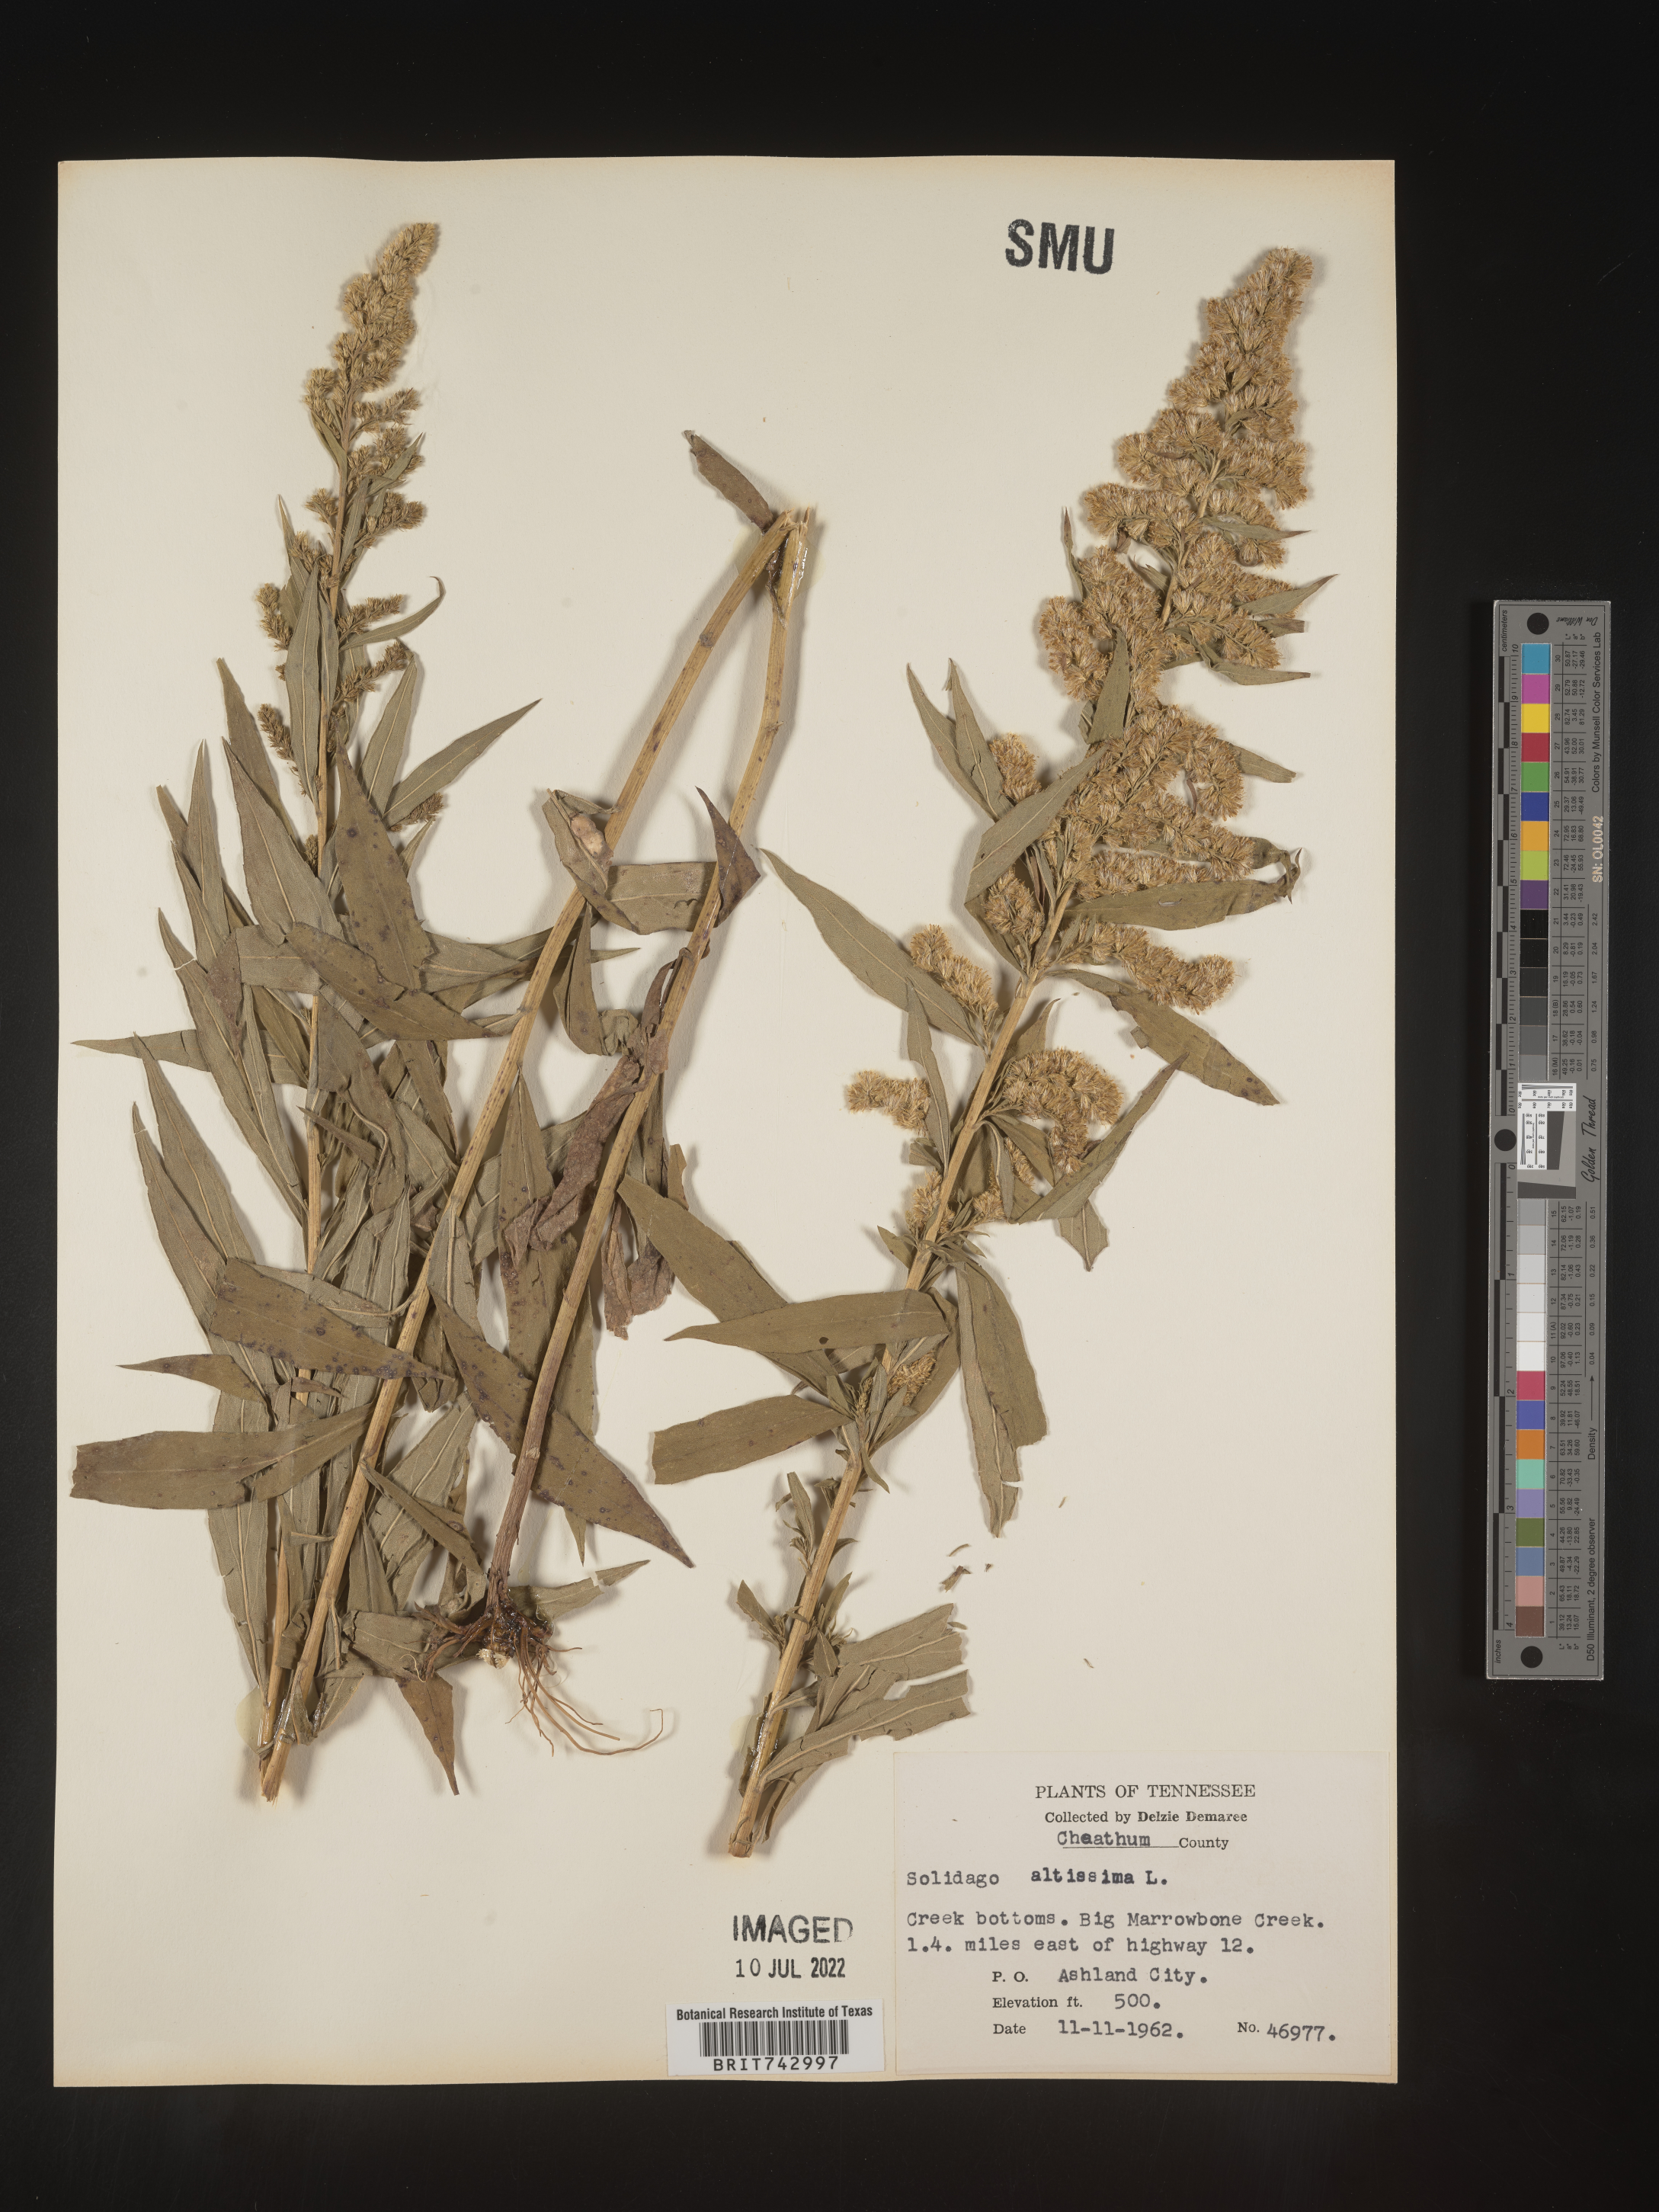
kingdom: Plantae
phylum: Tracheophyta
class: Magnoliopsida
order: Asterales
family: Asteraceae
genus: Solidago
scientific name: Solidago altissima
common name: Late goldenrod
